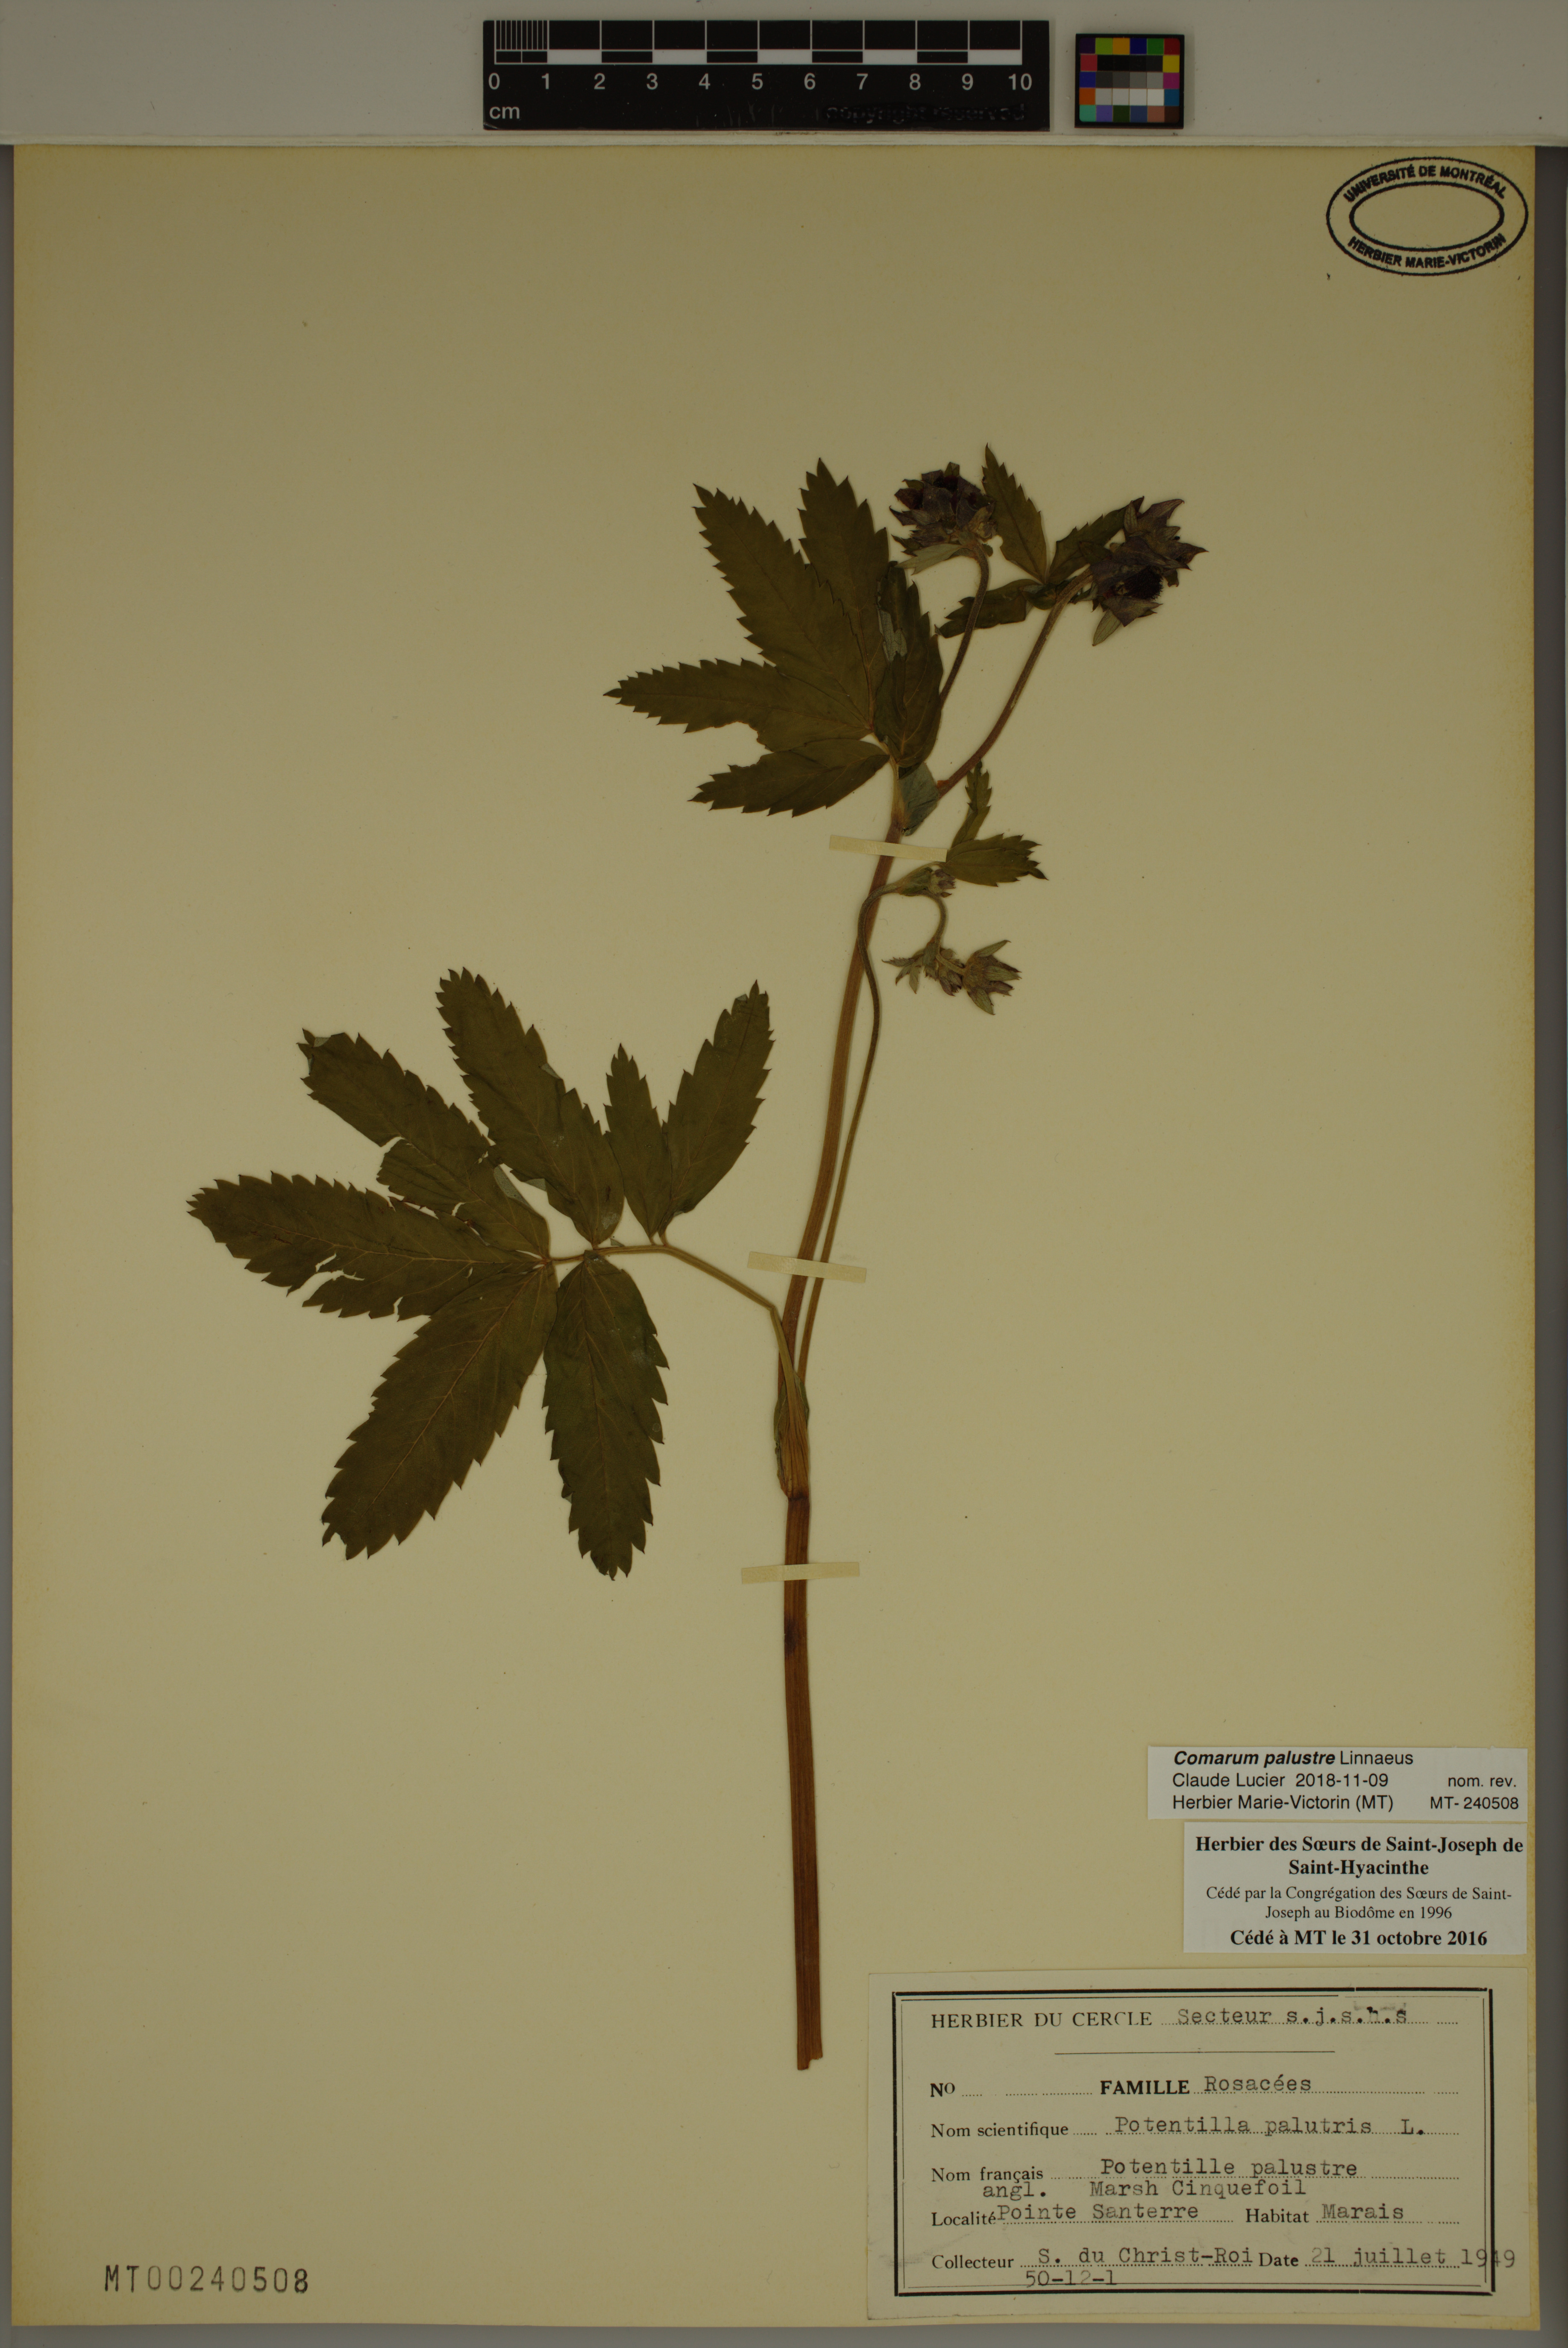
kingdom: Plantae
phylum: Tracheophyta
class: Magnoliopsida
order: Rosales
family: Rosaceae
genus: Comarum
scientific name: Comarum palustre
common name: Marsh cinquefoil
